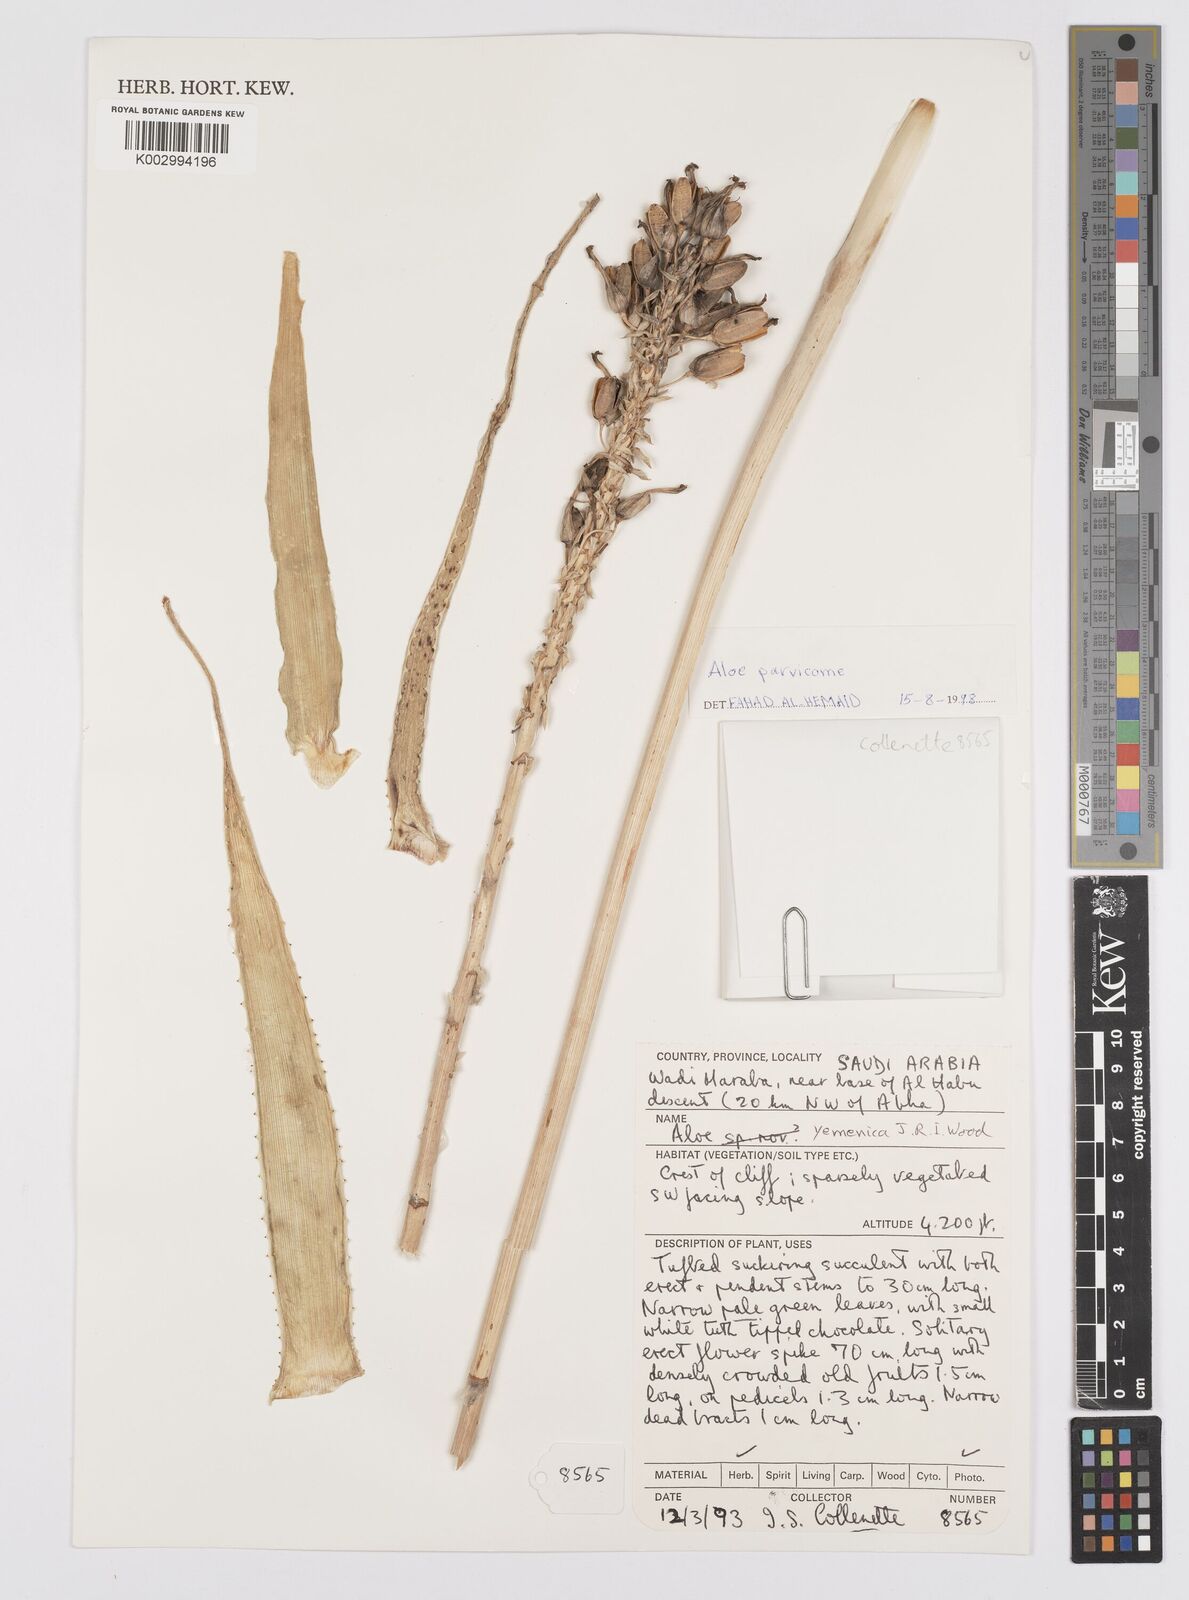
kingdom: Plantae
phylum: Tracheophyta
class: Liliopsida
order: Asparagales
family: Asphodelaceae
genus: Aloe
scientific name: Aloe rivierei
